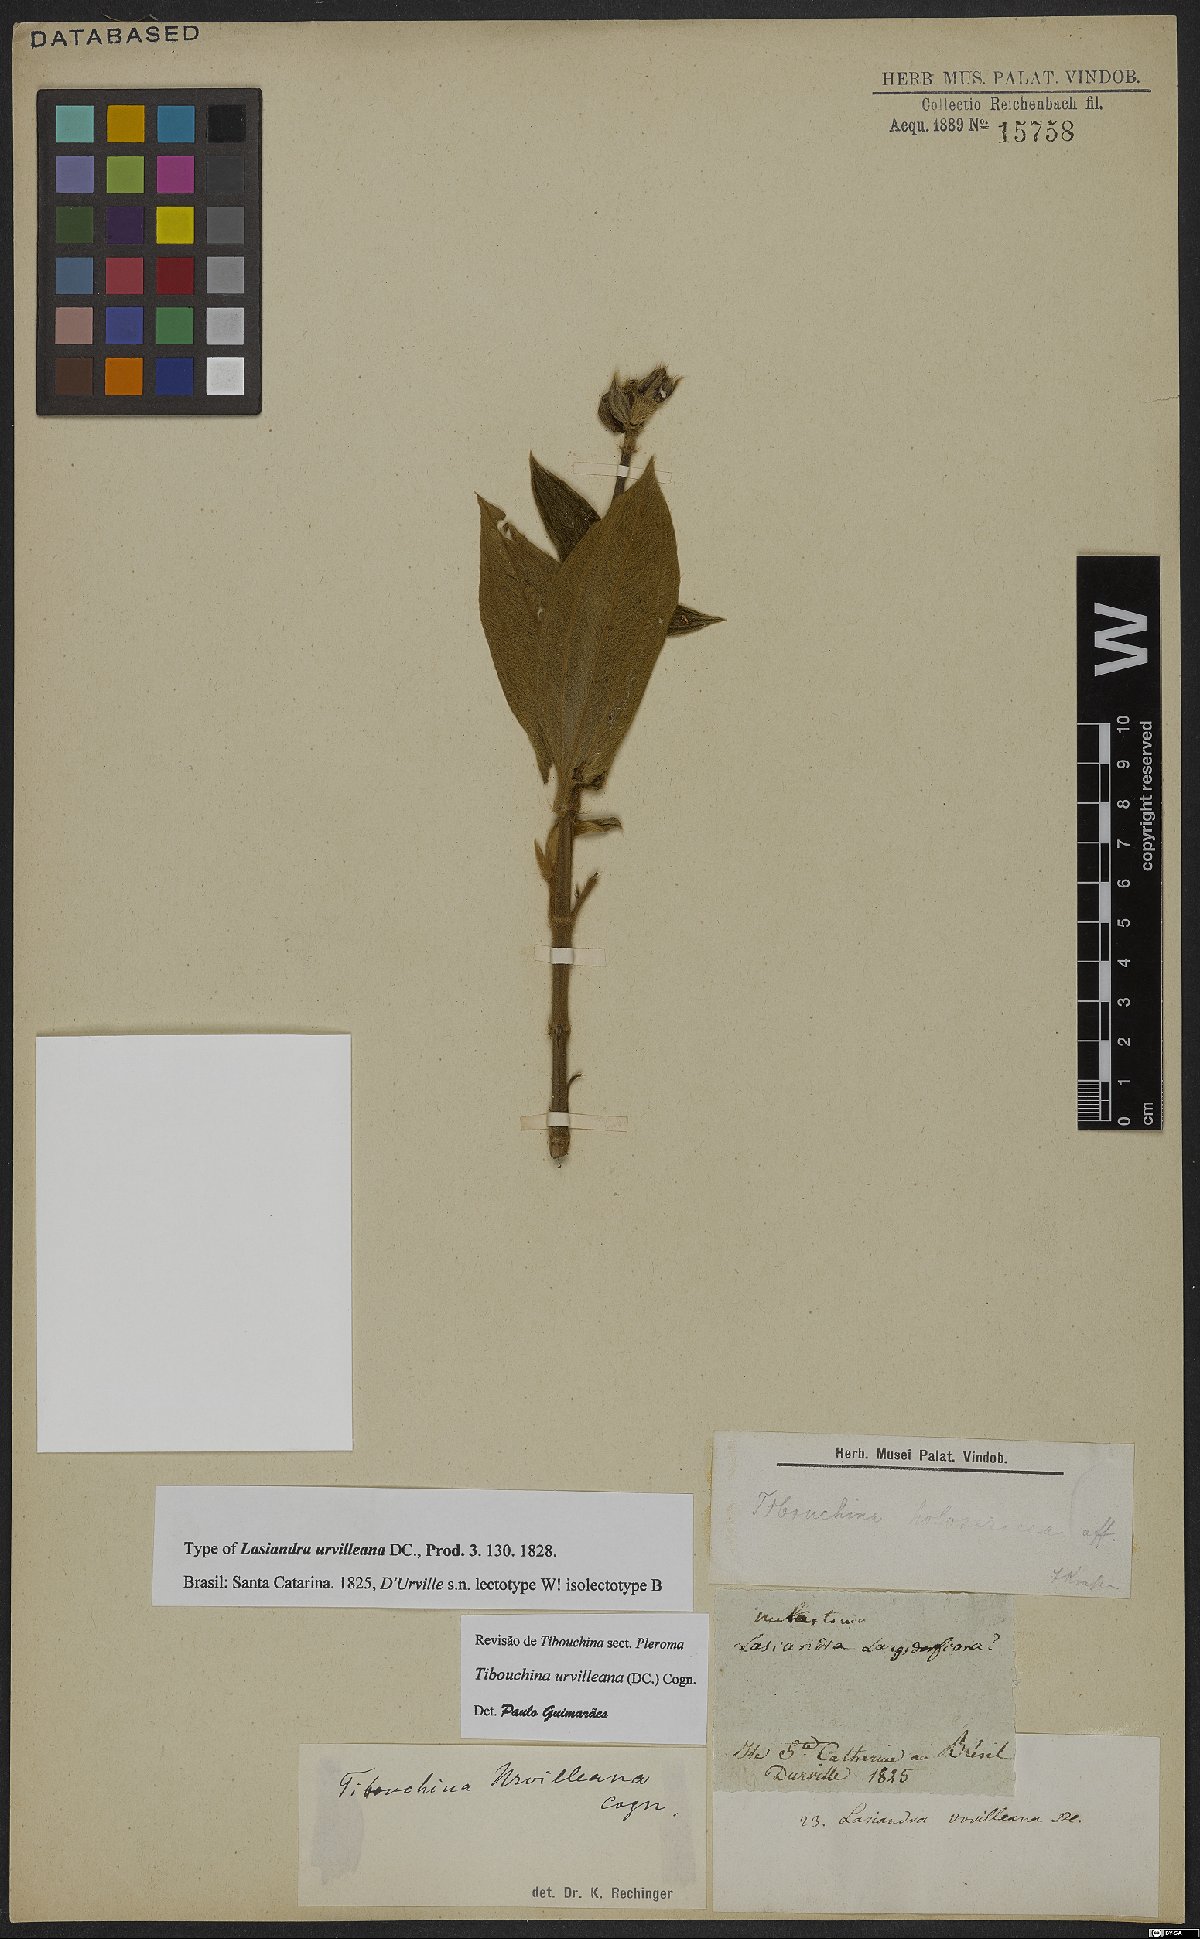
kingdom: Plantae
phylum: Tracheophyta
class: Magnoliopsida
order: Myrtales
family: Melastomataceae
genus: Pleroma
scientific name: Pleroma urvilleanum
